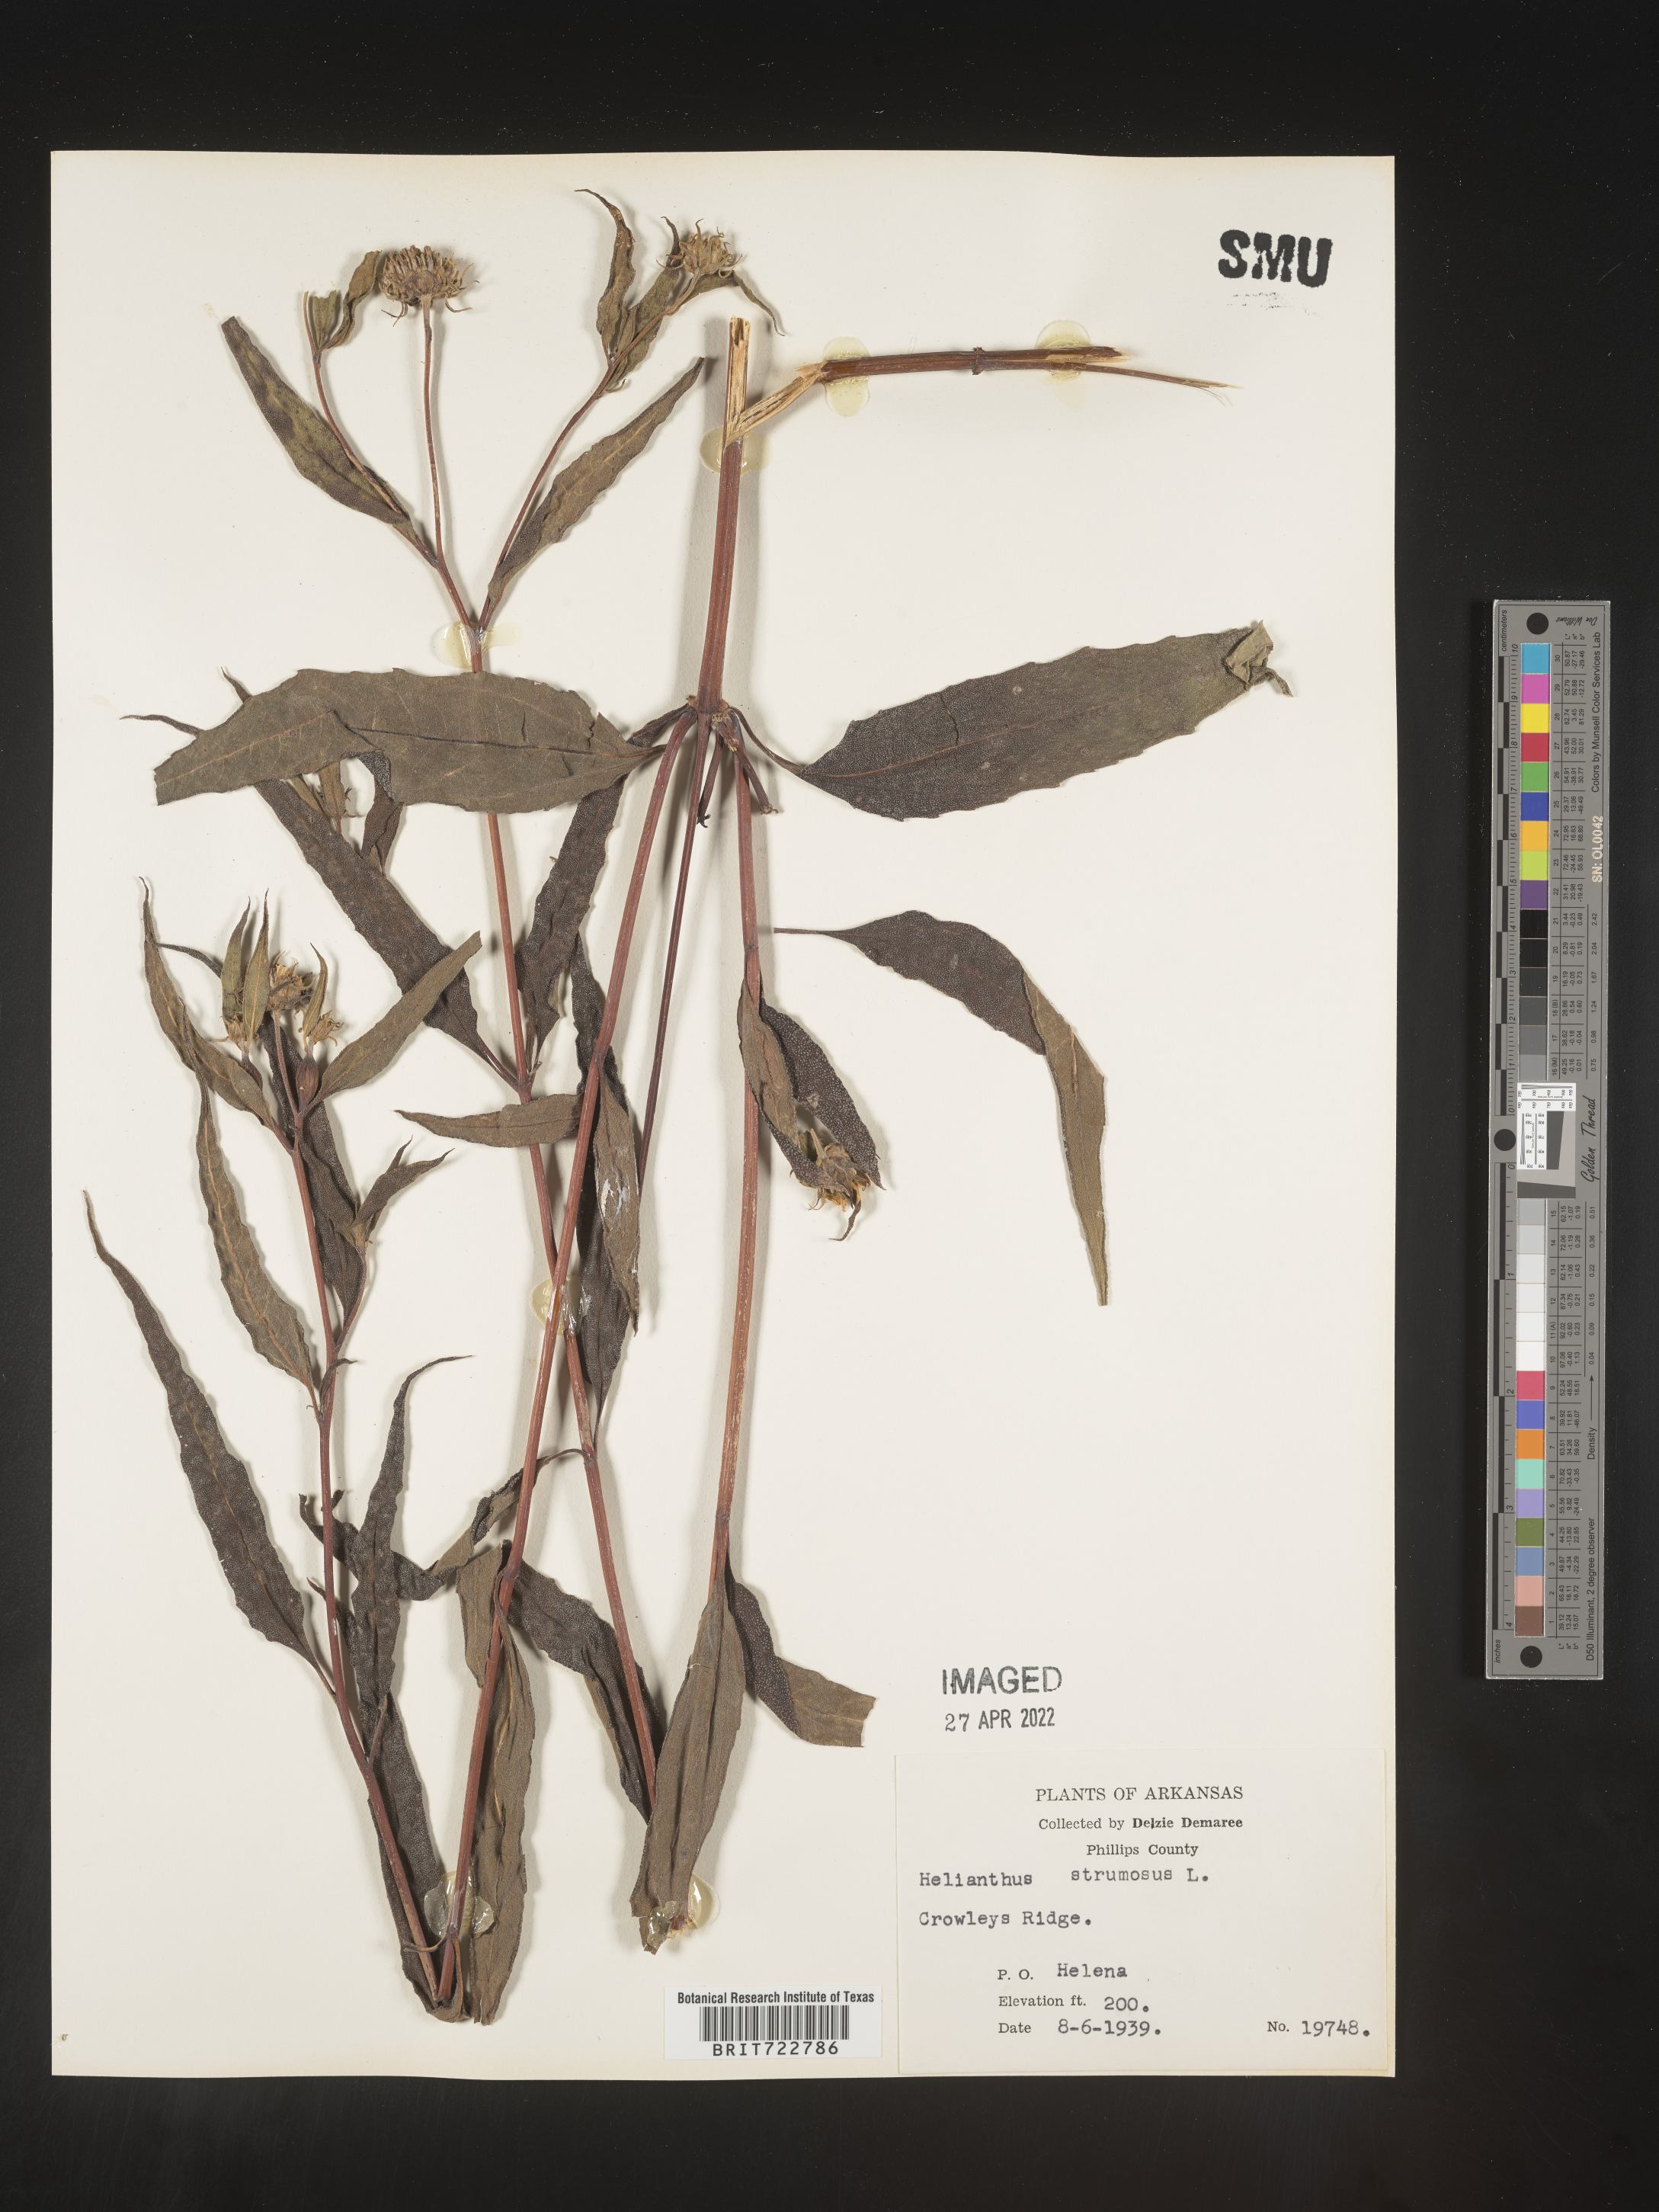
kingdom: Plantae
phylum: Tracheophyta
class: Magnoliopsida
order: Asterales
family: Asteraceae
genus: Helianthus
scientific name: Helianthus strumosus
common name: Pale-leaved sunflower
